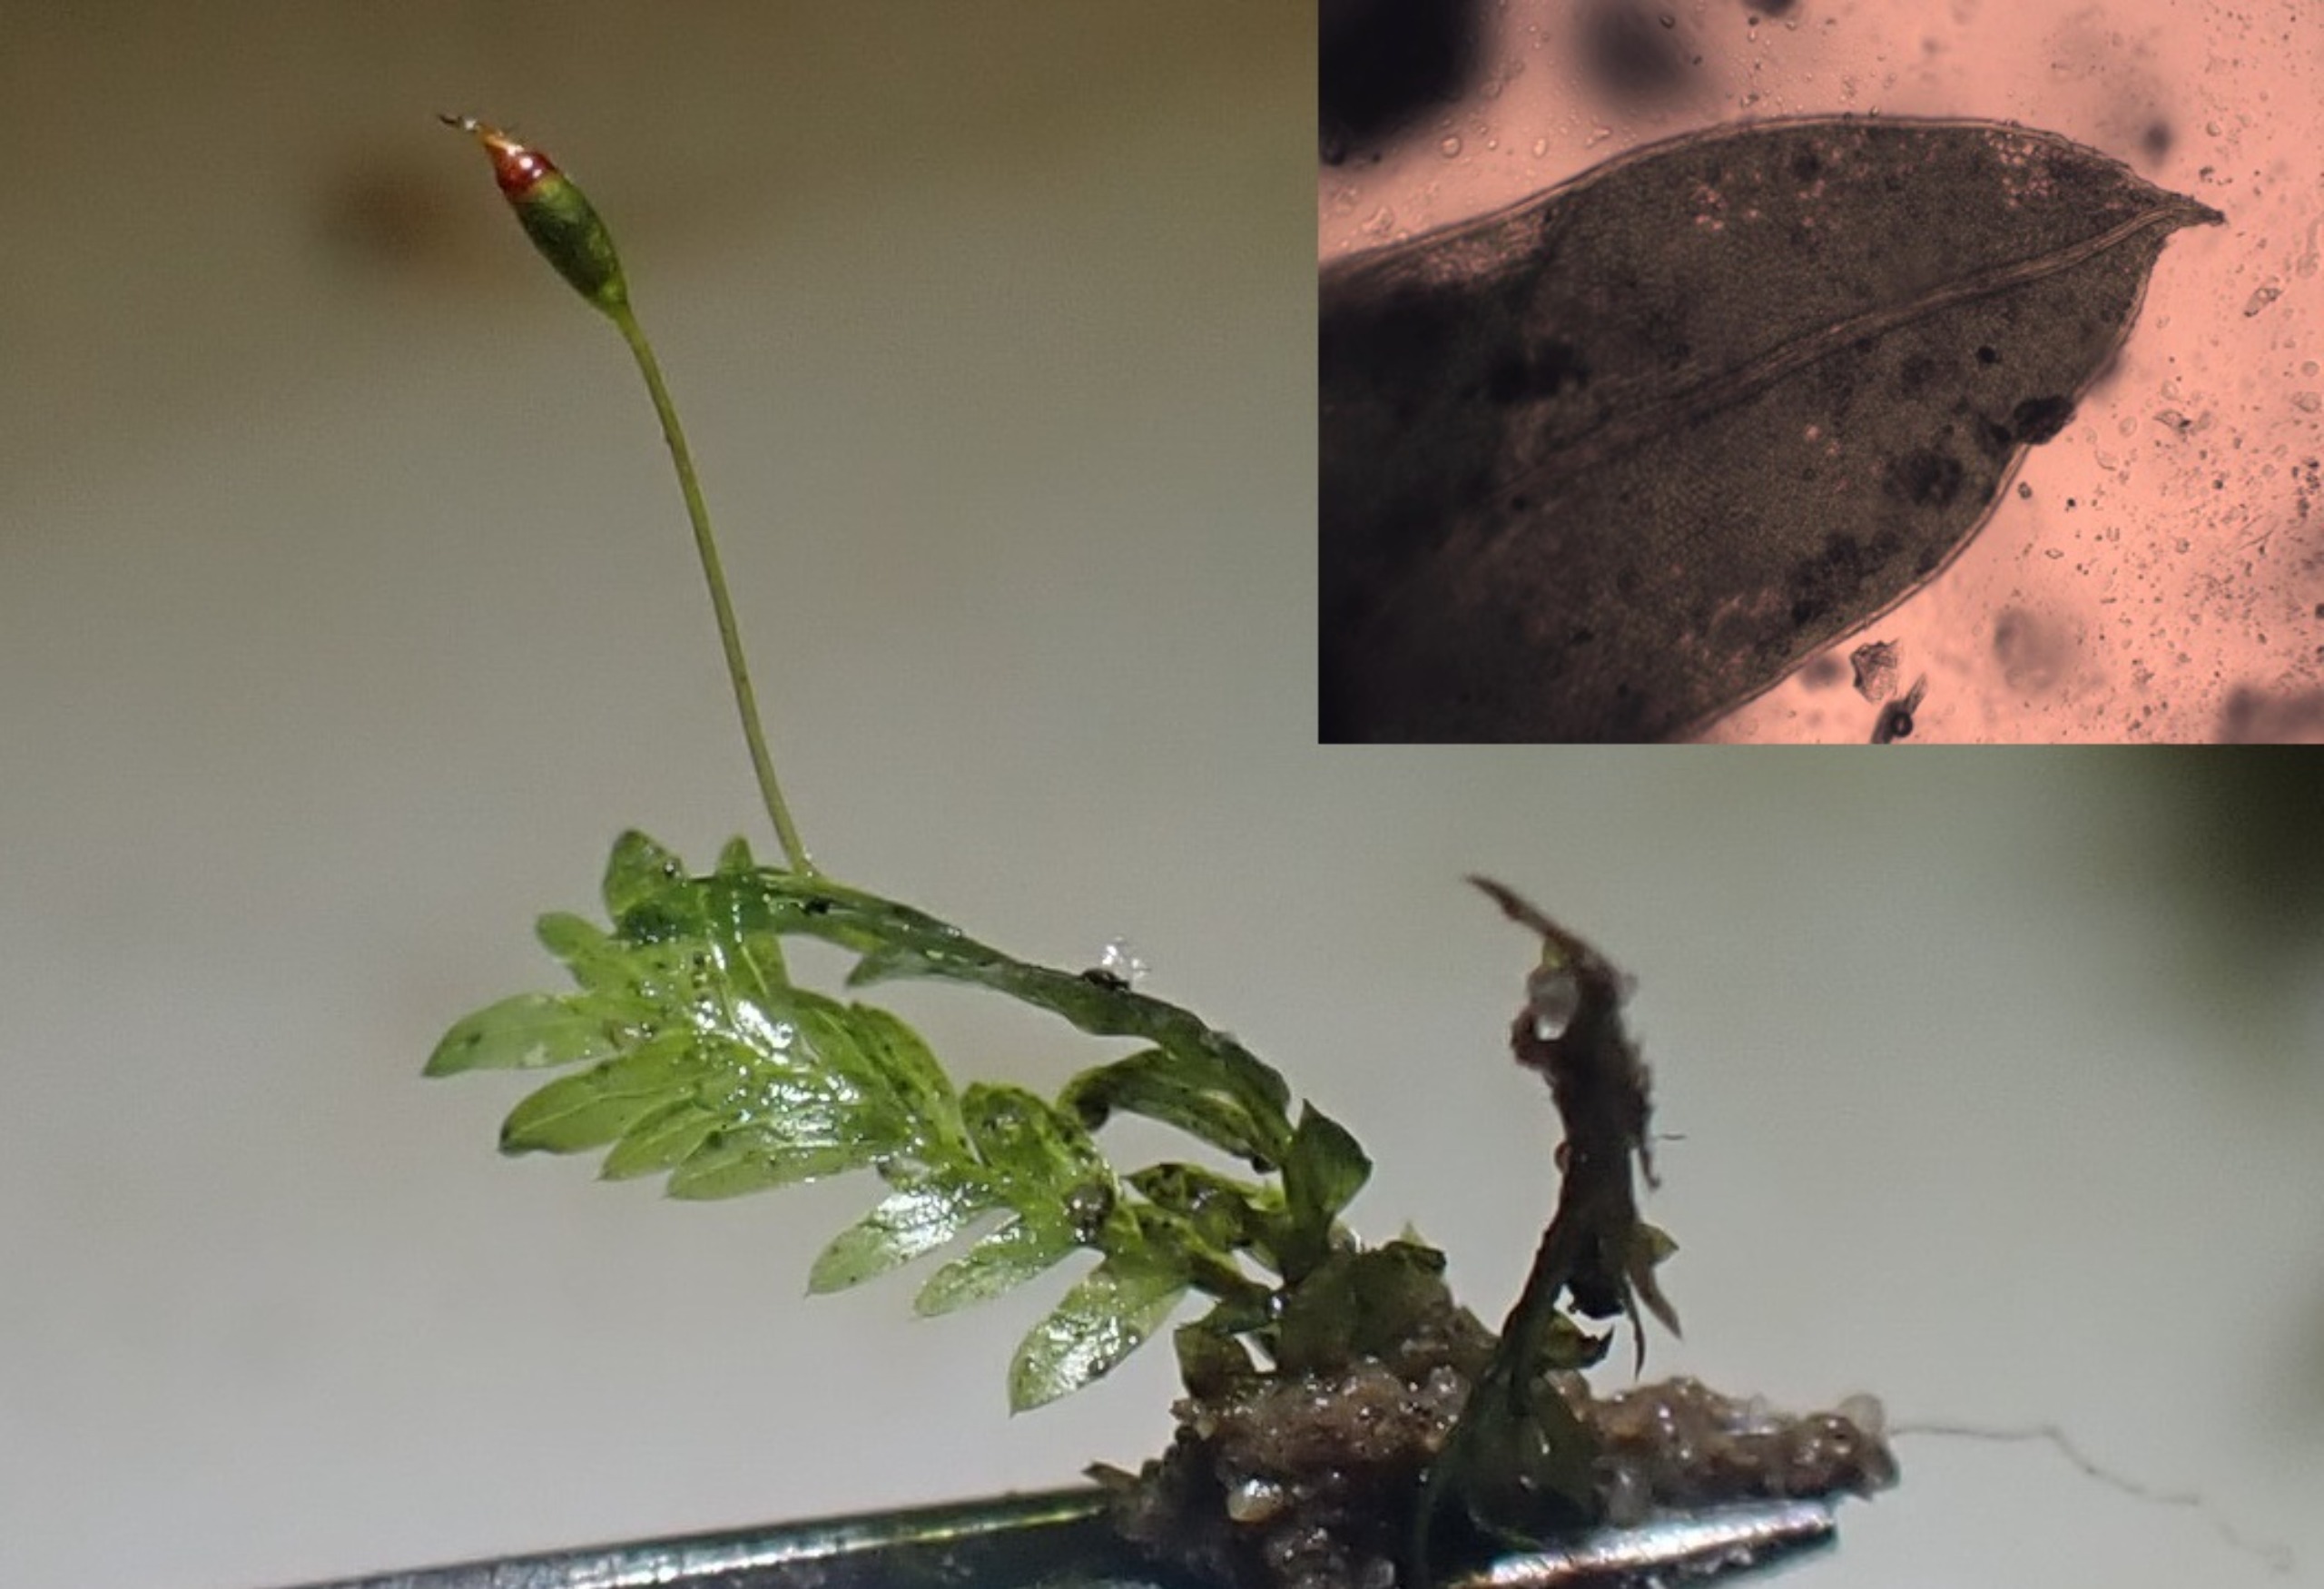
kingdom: Plantae
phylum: Bryophyta
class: Bryopsida
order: Dicranales
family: Fissidentaceae
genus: Fissidens
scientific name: Fissidens bryoides
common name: Top-rademos
